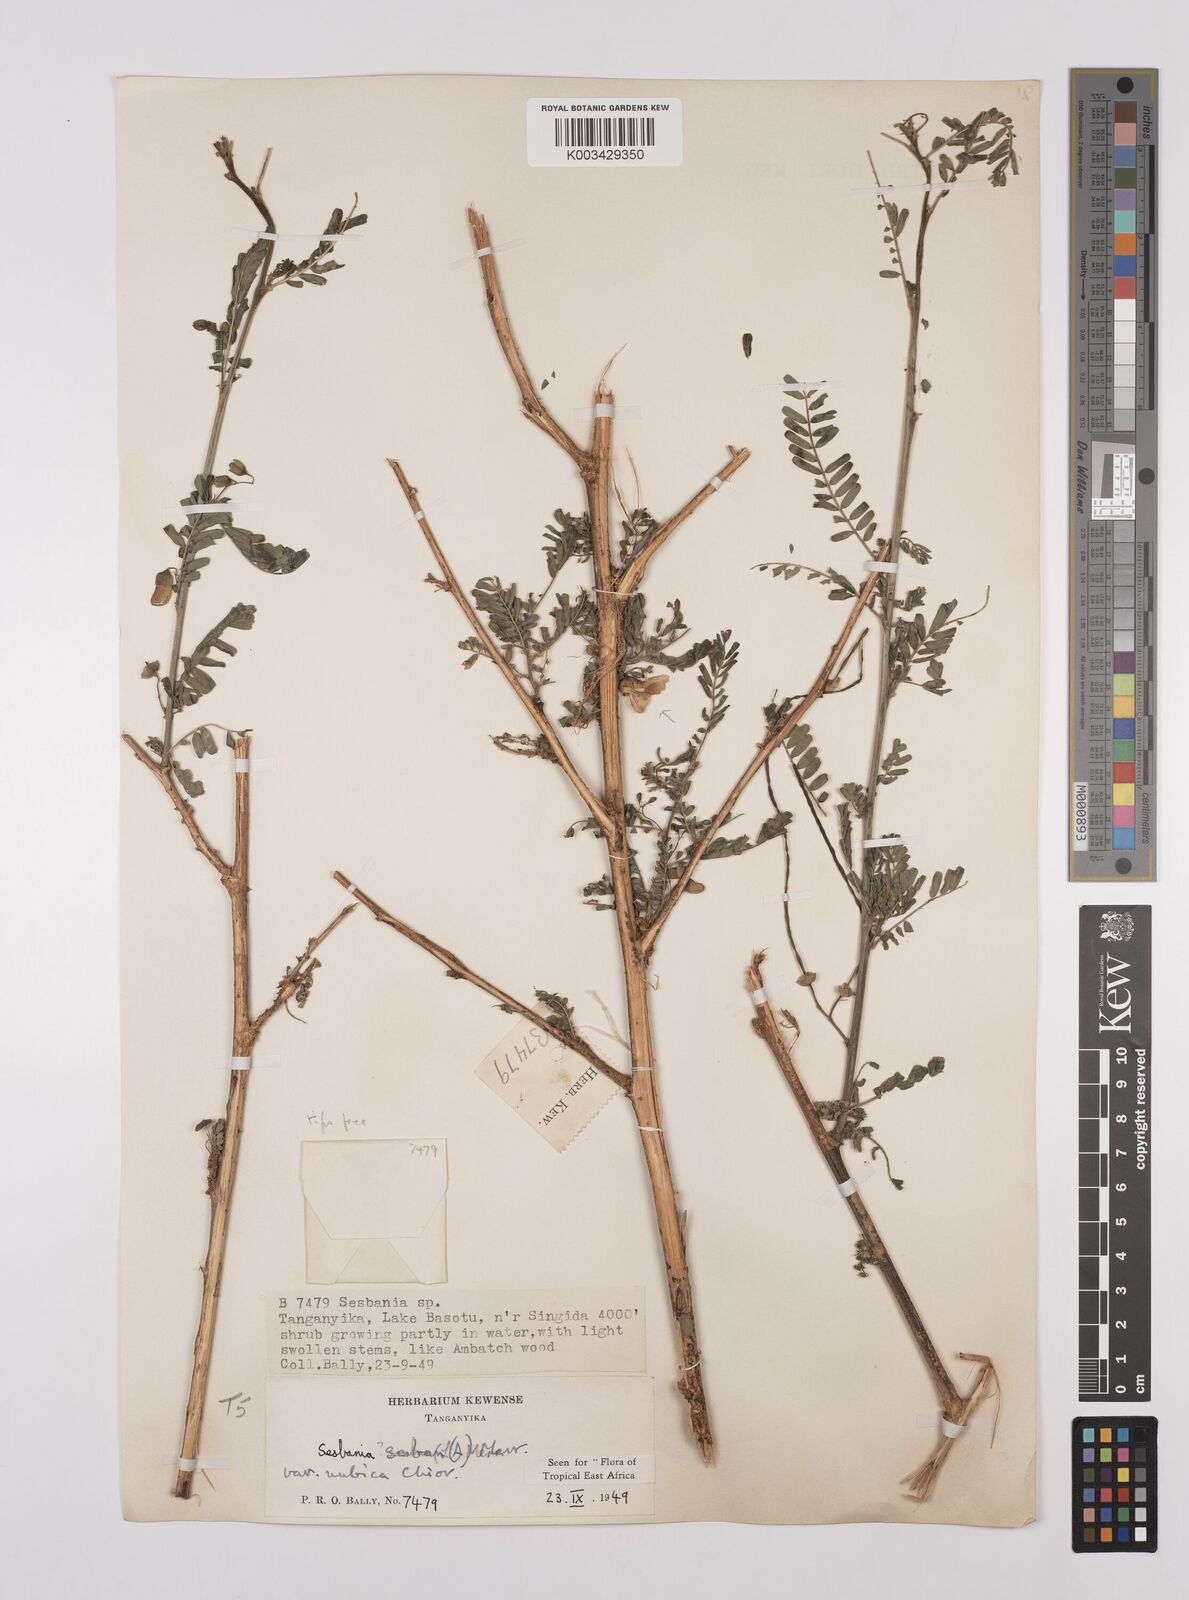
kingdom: Plantae
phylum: Tracheophyta
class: Magnoliopsida
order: Fabales
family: Fabaceae
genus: Sesbania
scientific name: Sesbania sesban
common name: Egyptian sesban
